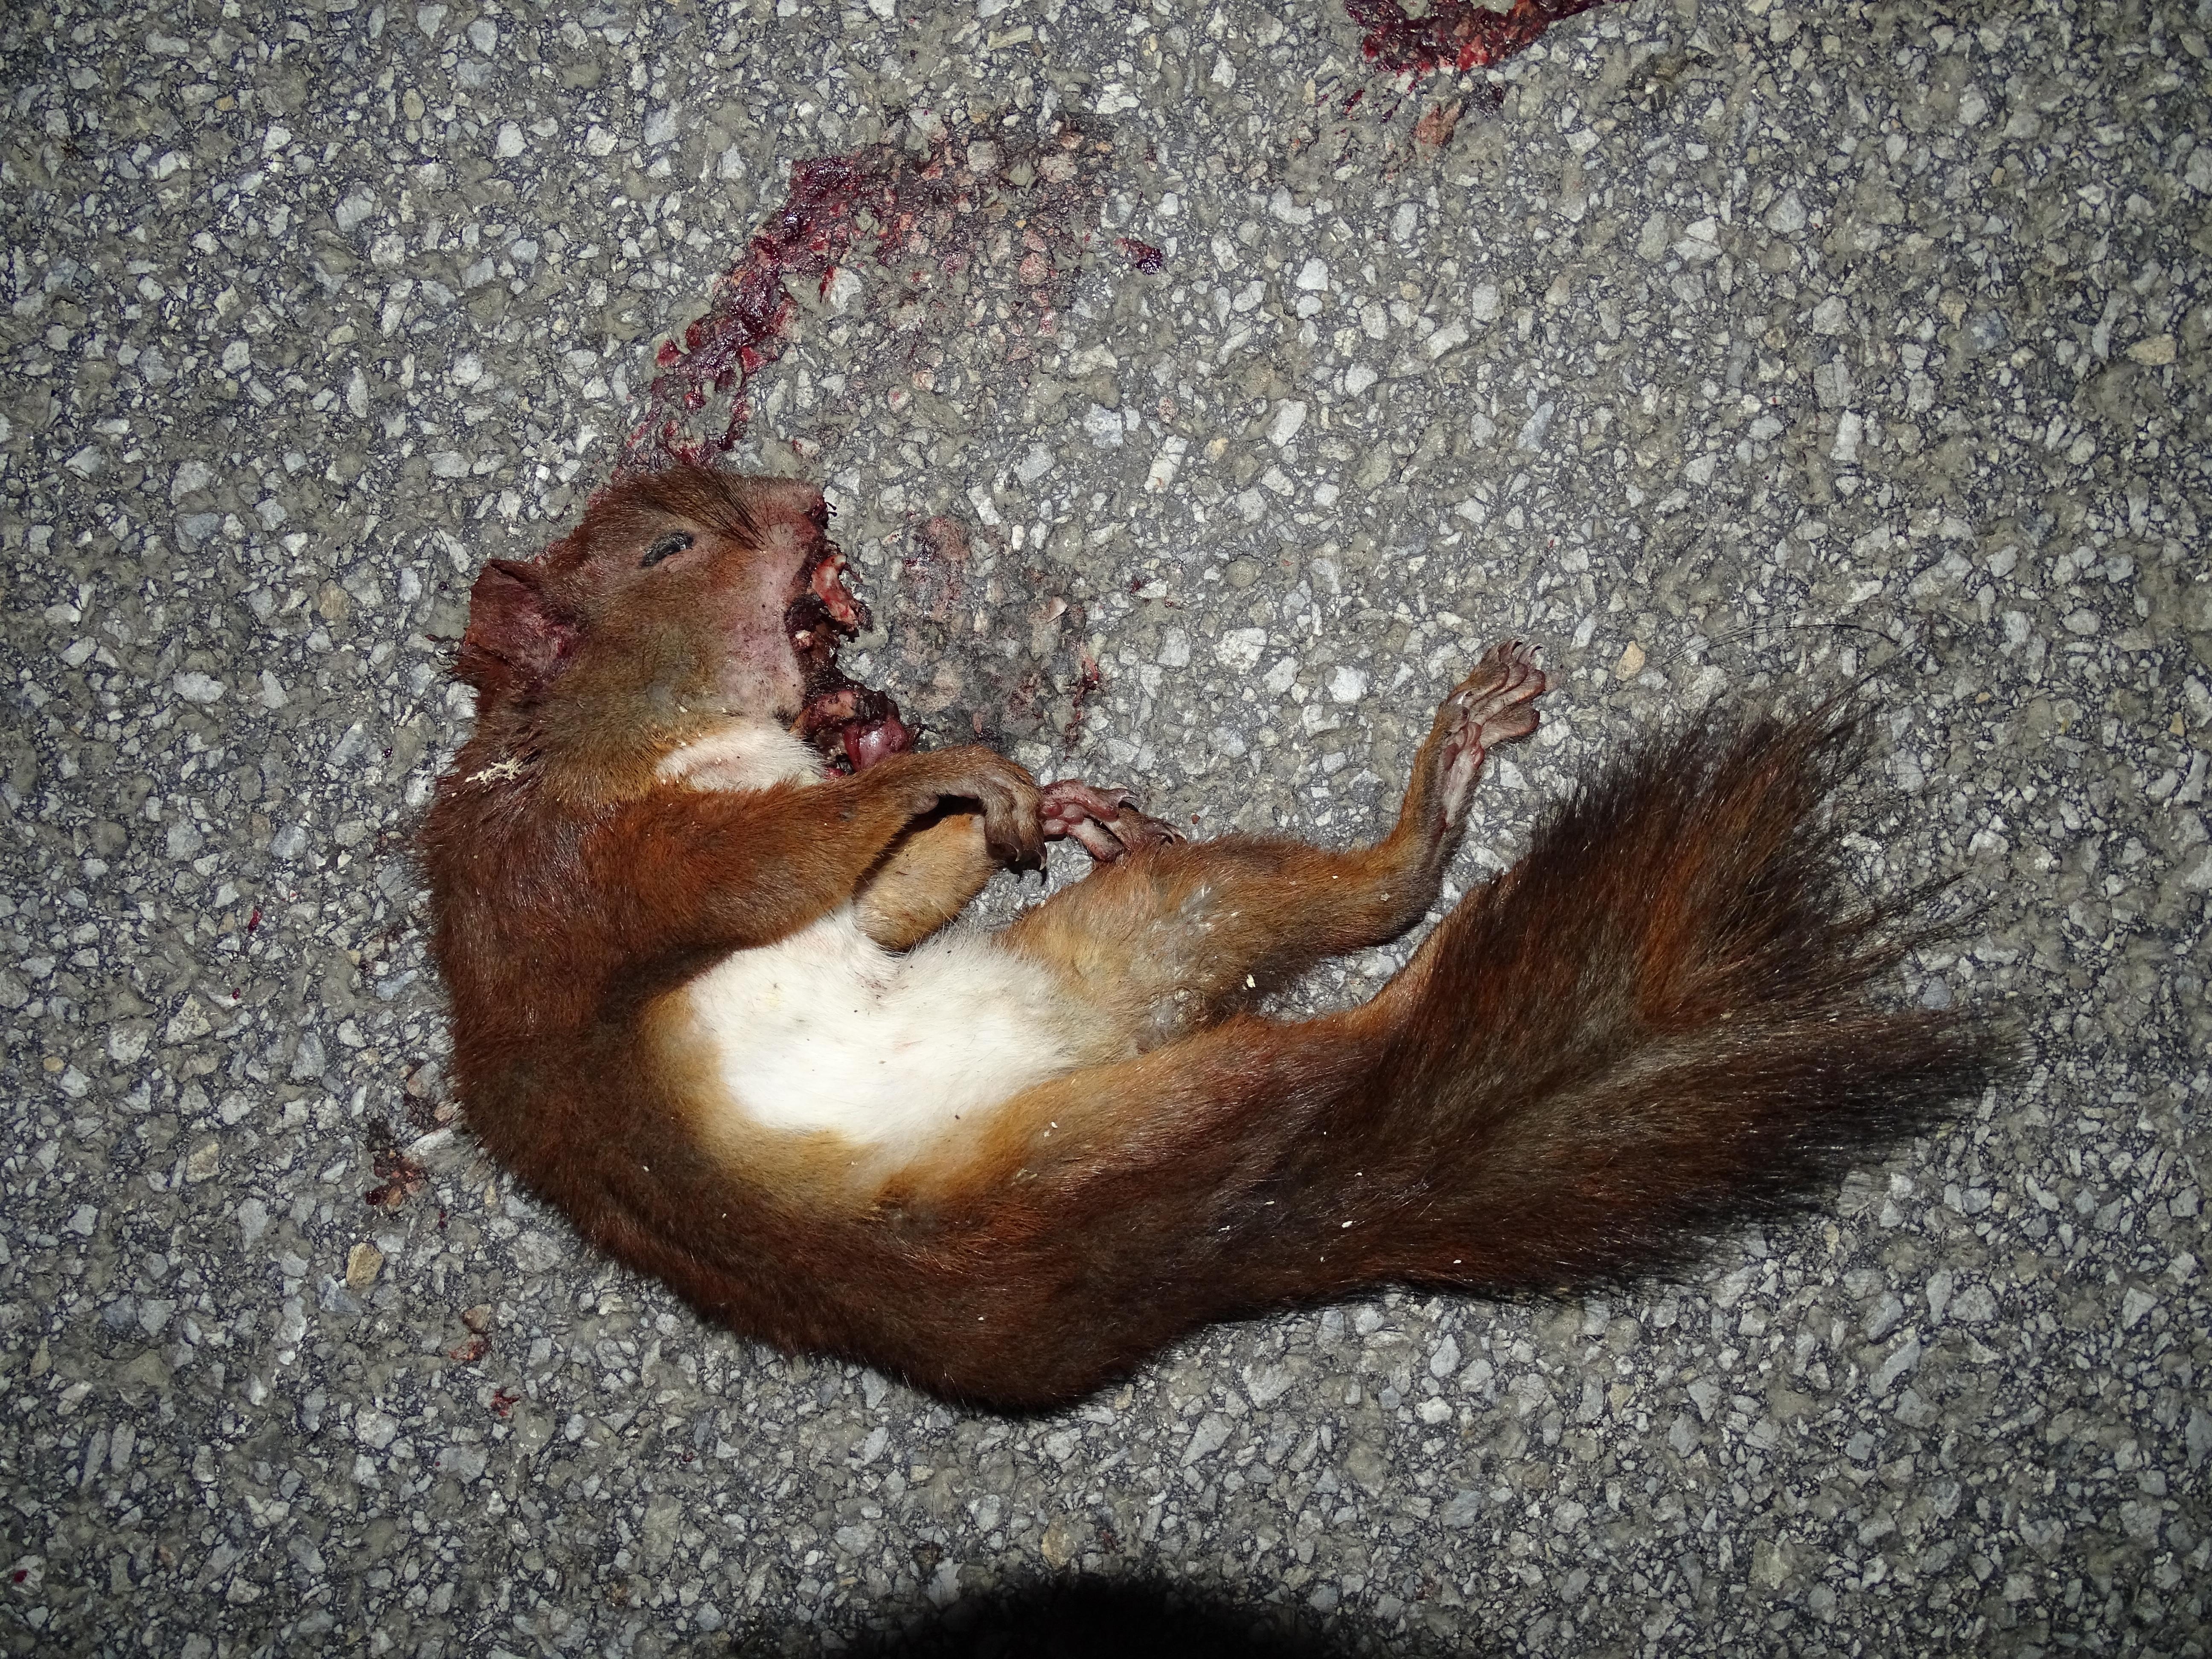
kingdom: Animalia
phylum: Chordata
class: Mammalia
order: Rodentia
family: Sciuridae
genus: Sciurus
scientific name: Sciurus vulgaris
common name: Eurasian red squirrel
